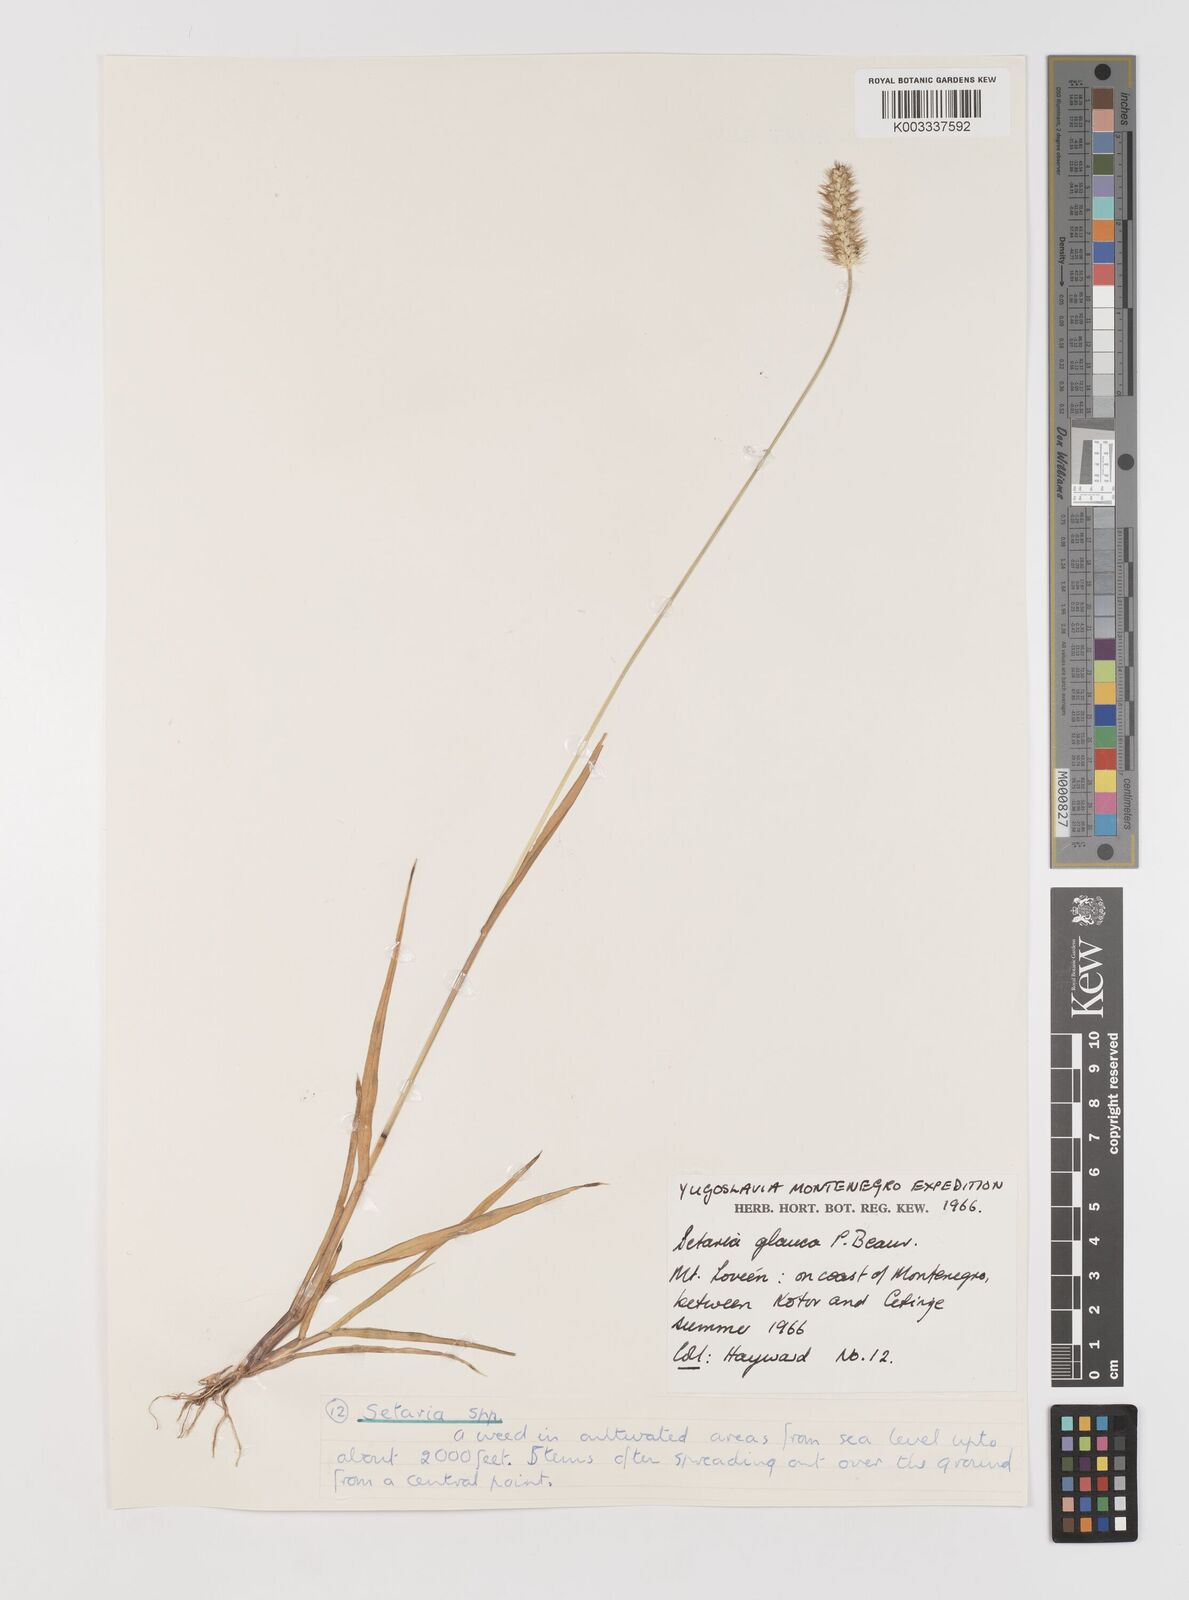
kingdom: Plantae
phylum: Tracheophyta
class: Liliopsida
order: Poales
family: Poaceae
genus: Setaria
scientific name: Setaria pumila
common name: Yellow bristle-grass
